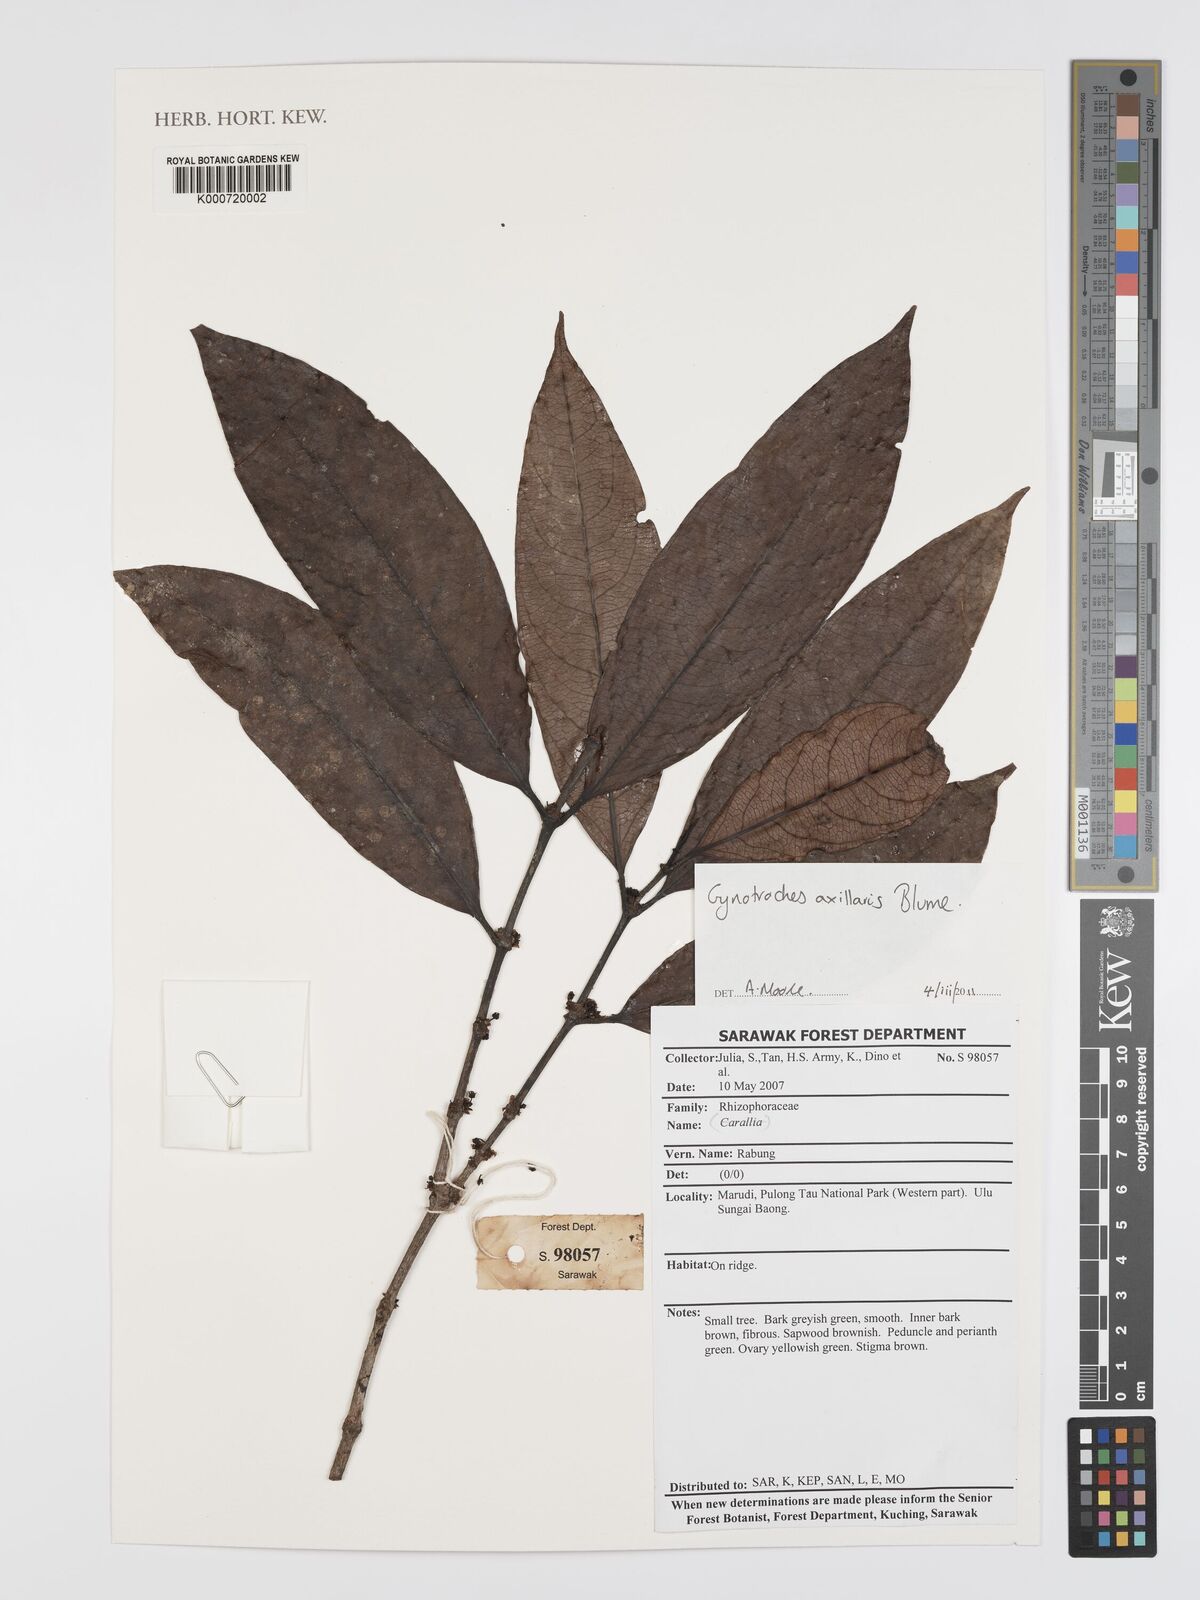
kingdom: Plantae
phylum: Tracheophyta
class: Magnoliopsida
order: Malpighiales
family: Rhizophoraceae
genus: Gynotroches
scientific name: Gynotroches axillaris
